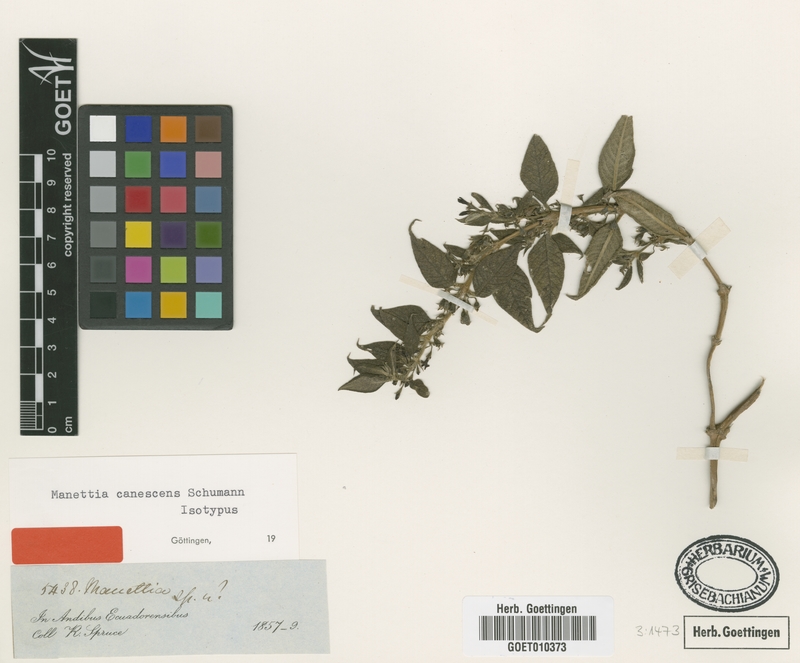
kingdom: Plantae
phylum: Tracheophyta
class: Magnoliopsida
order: Gentianales
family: Rubiaceae
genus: Manettia
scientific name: Manettia canescens
